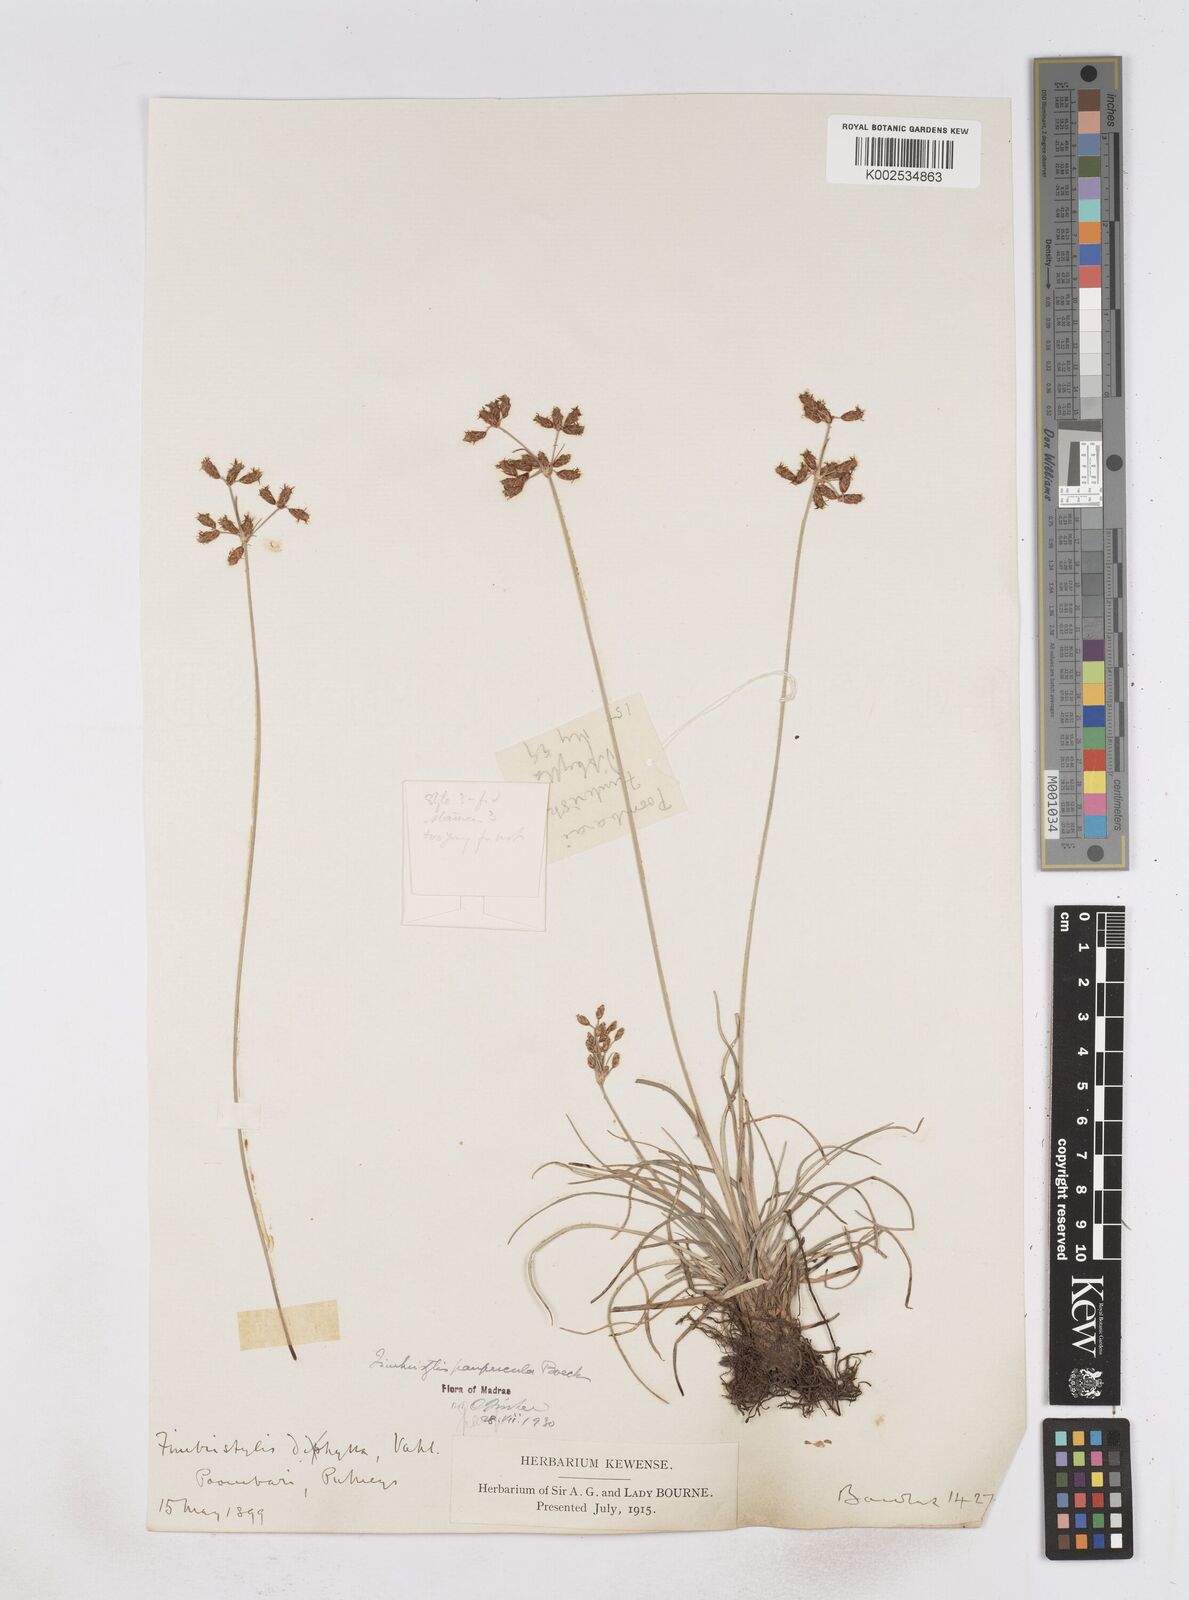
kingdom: Plantae
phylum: Tracheophyta
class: Liliopsida
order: Poales
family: Cyperaceae
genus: Fimbristylis
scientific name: Fimbristylis paupercula
